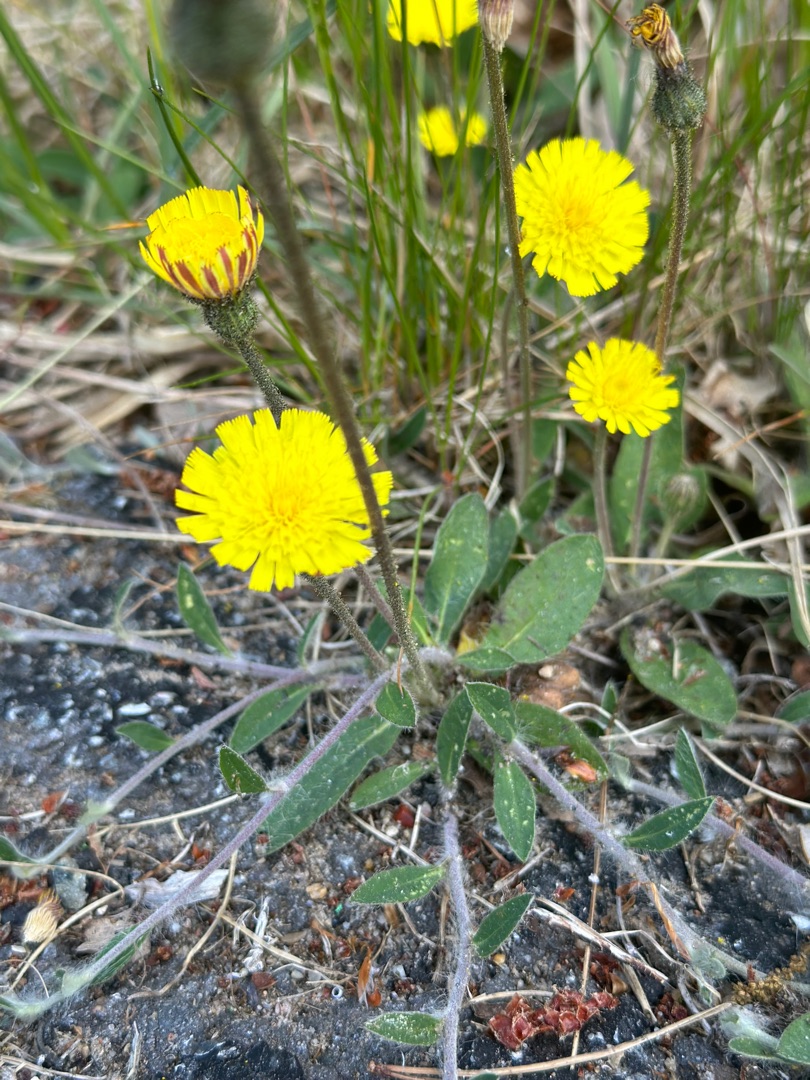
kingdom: Plantae
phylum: Tracheophyta
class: Magnoliopsida
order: Asterales
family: Asteraceae
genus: Pilosella
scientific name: Pilosella officinarum
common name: Håret høgeurt
